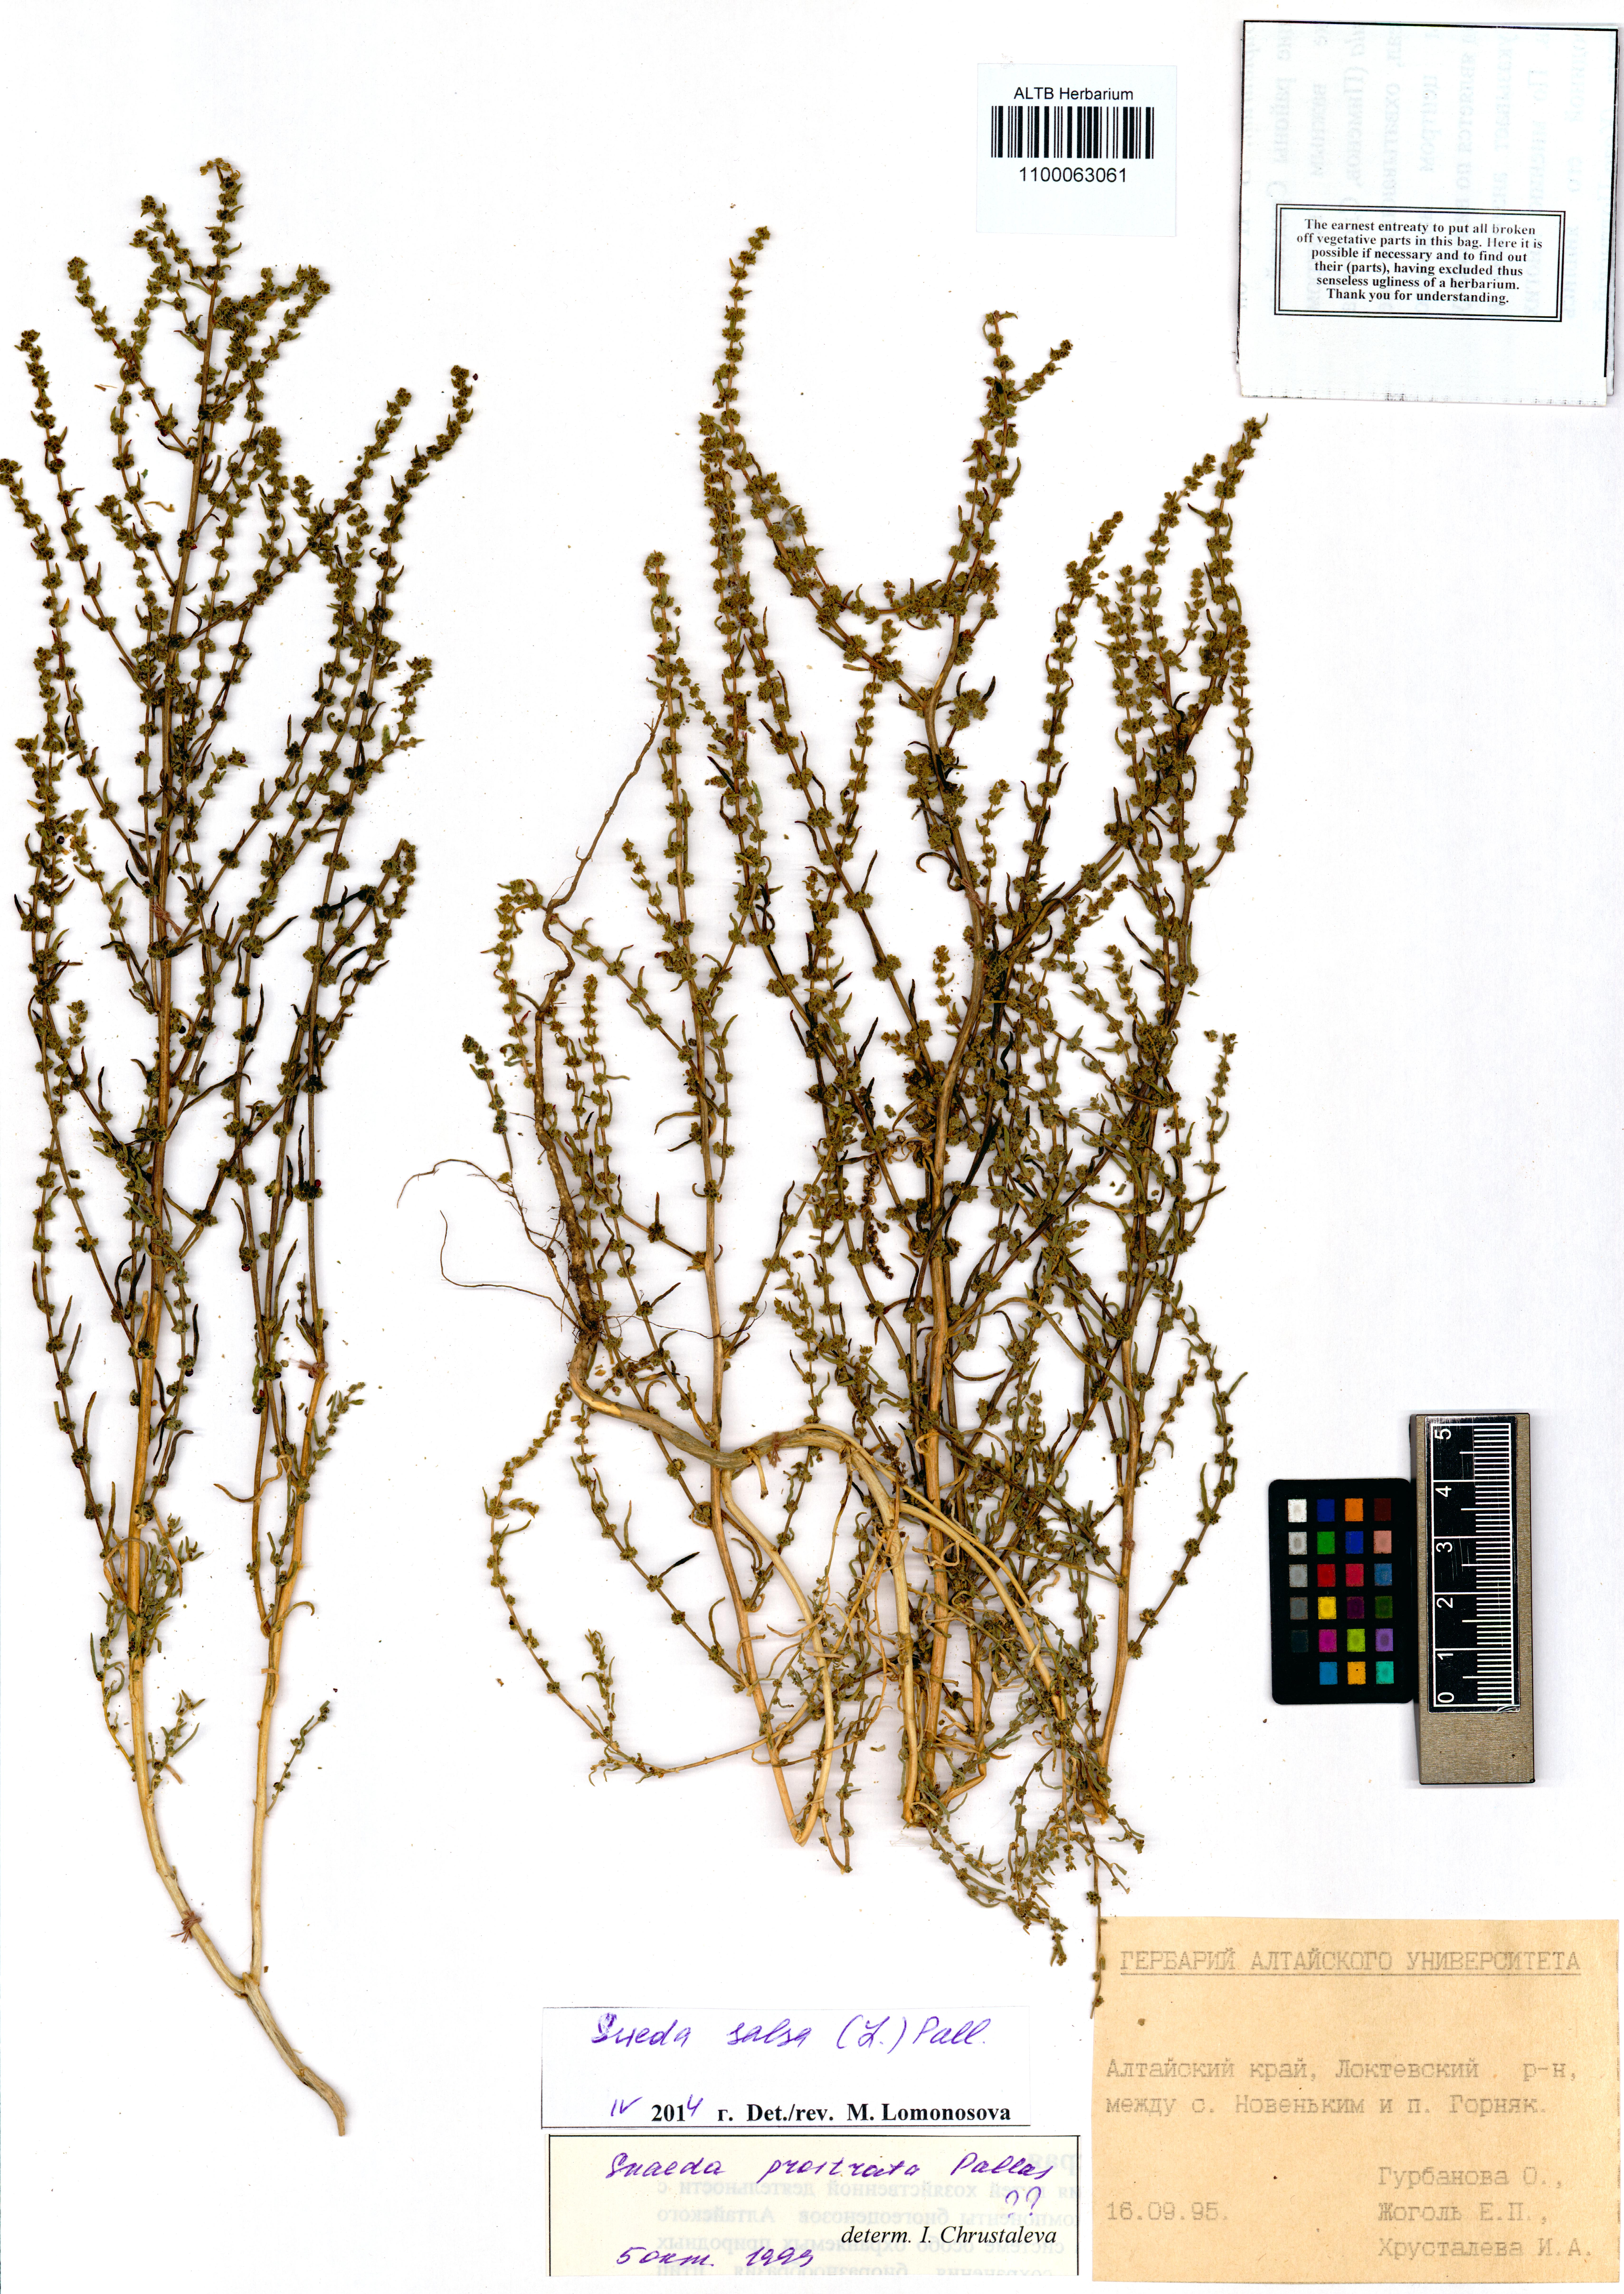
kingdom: Plantae
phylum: Tracheophyta
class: Magnoliopsida
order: Caryophyllales
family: Amaranthaceae
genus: Suaeda
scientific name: Suaeda salsa
